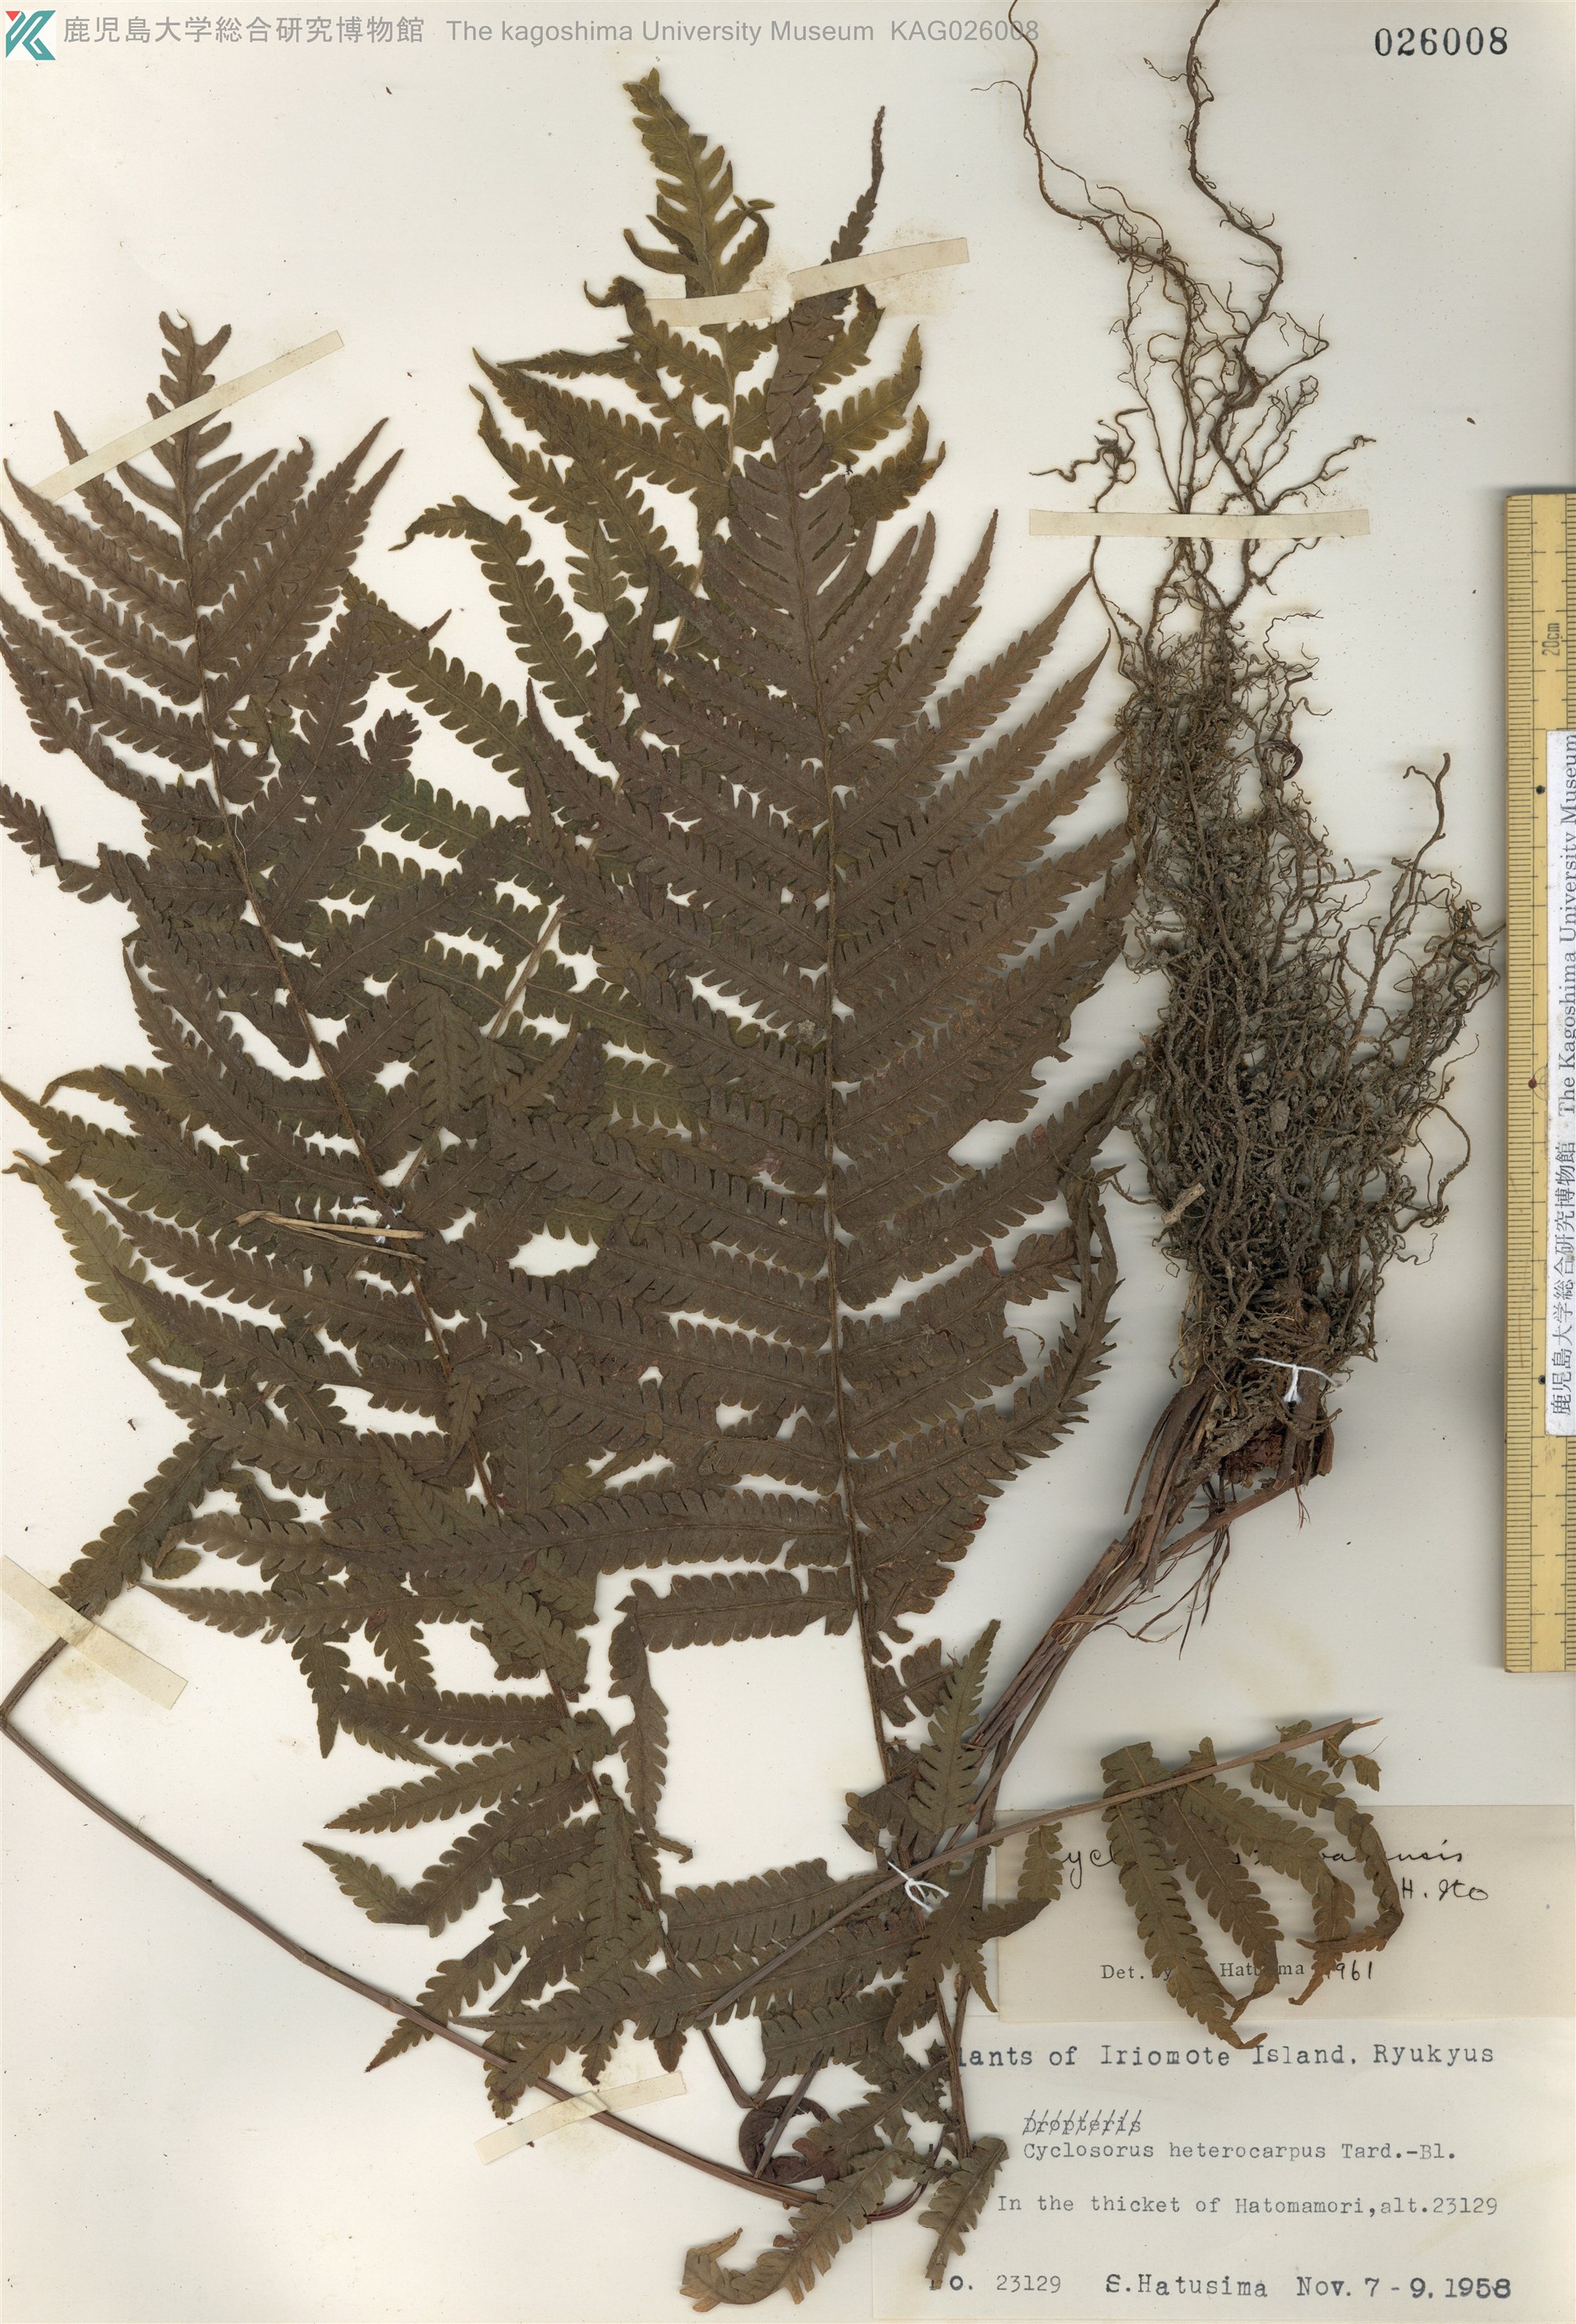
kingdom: Plantae
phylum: Tracheophyta
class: Polypodiopsida
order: Polypodiales
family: Thelypteridaceae
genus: Sphaerostephanos
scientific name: Sphaerostephanos taiwanensis
